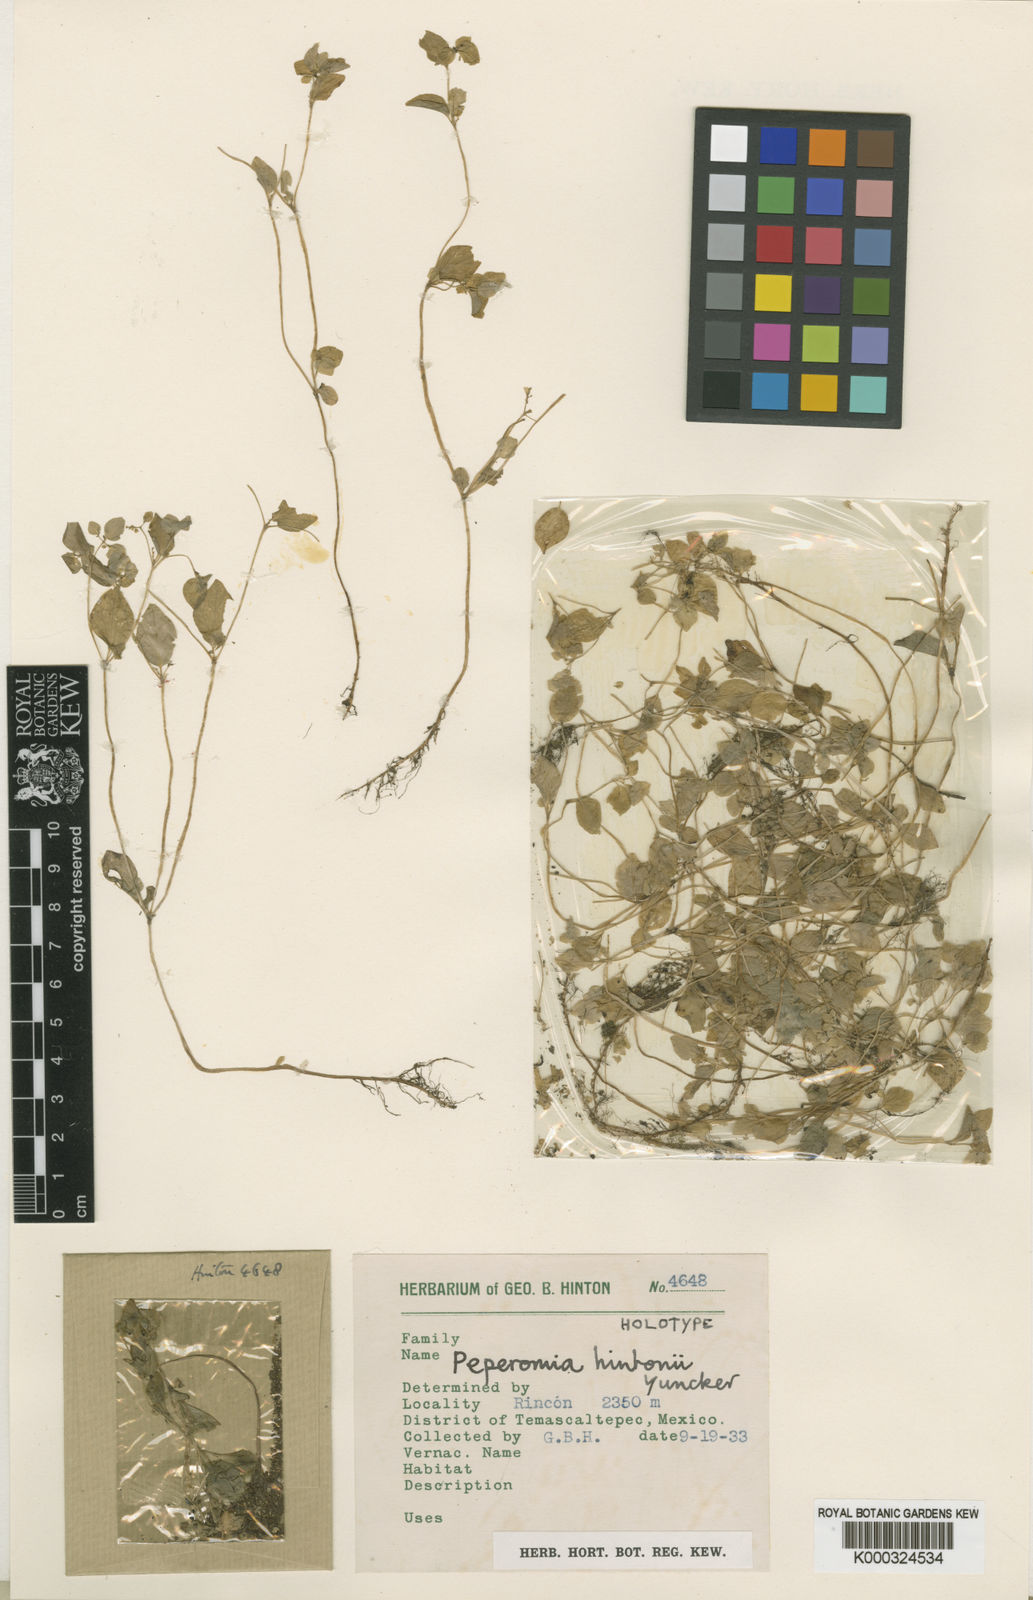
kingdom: Plantae
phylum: Tracheophyta
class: Magnoliopsida
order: Piperales
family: Piperaceae
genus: Peperomia
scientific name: Peperomia hintonii
